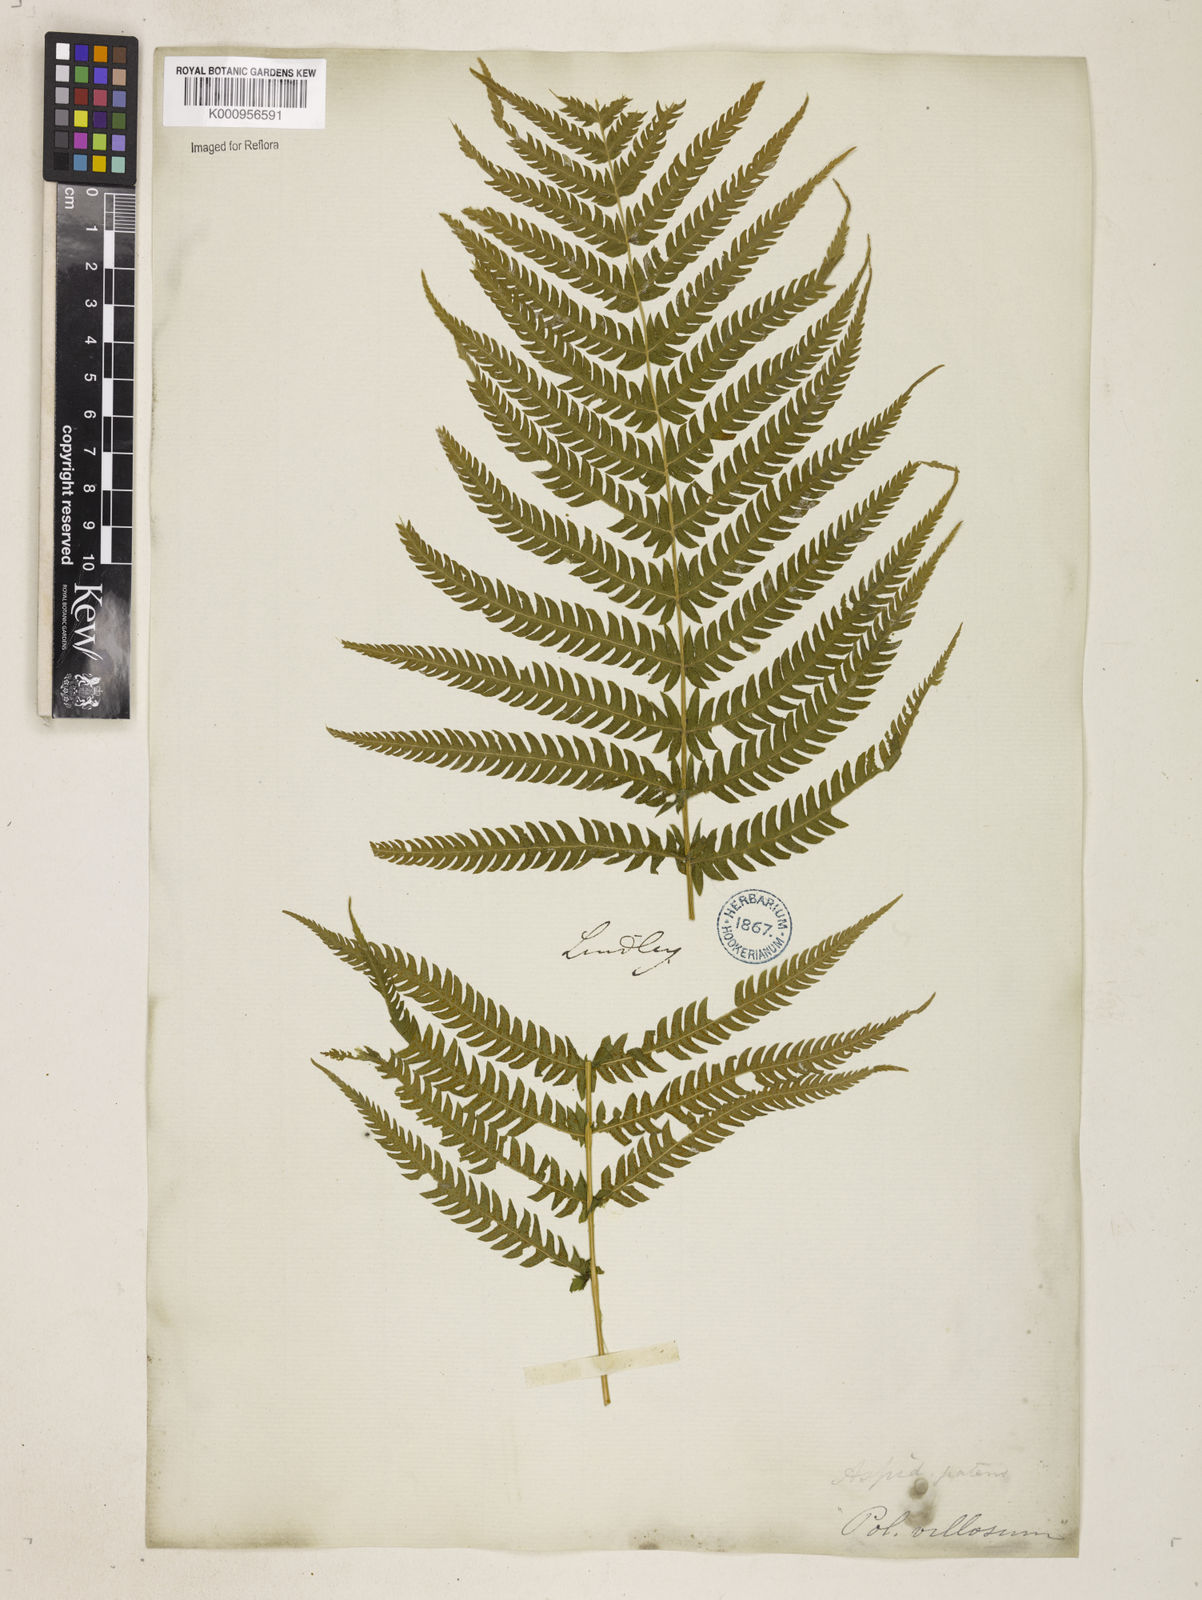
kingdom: Plantae
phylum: Tracheophyta
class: Polypodiopsida
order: Polypodiales
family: Thelypteridaceae
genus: Pelazoneuron
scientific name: Pelazoneuron patens
